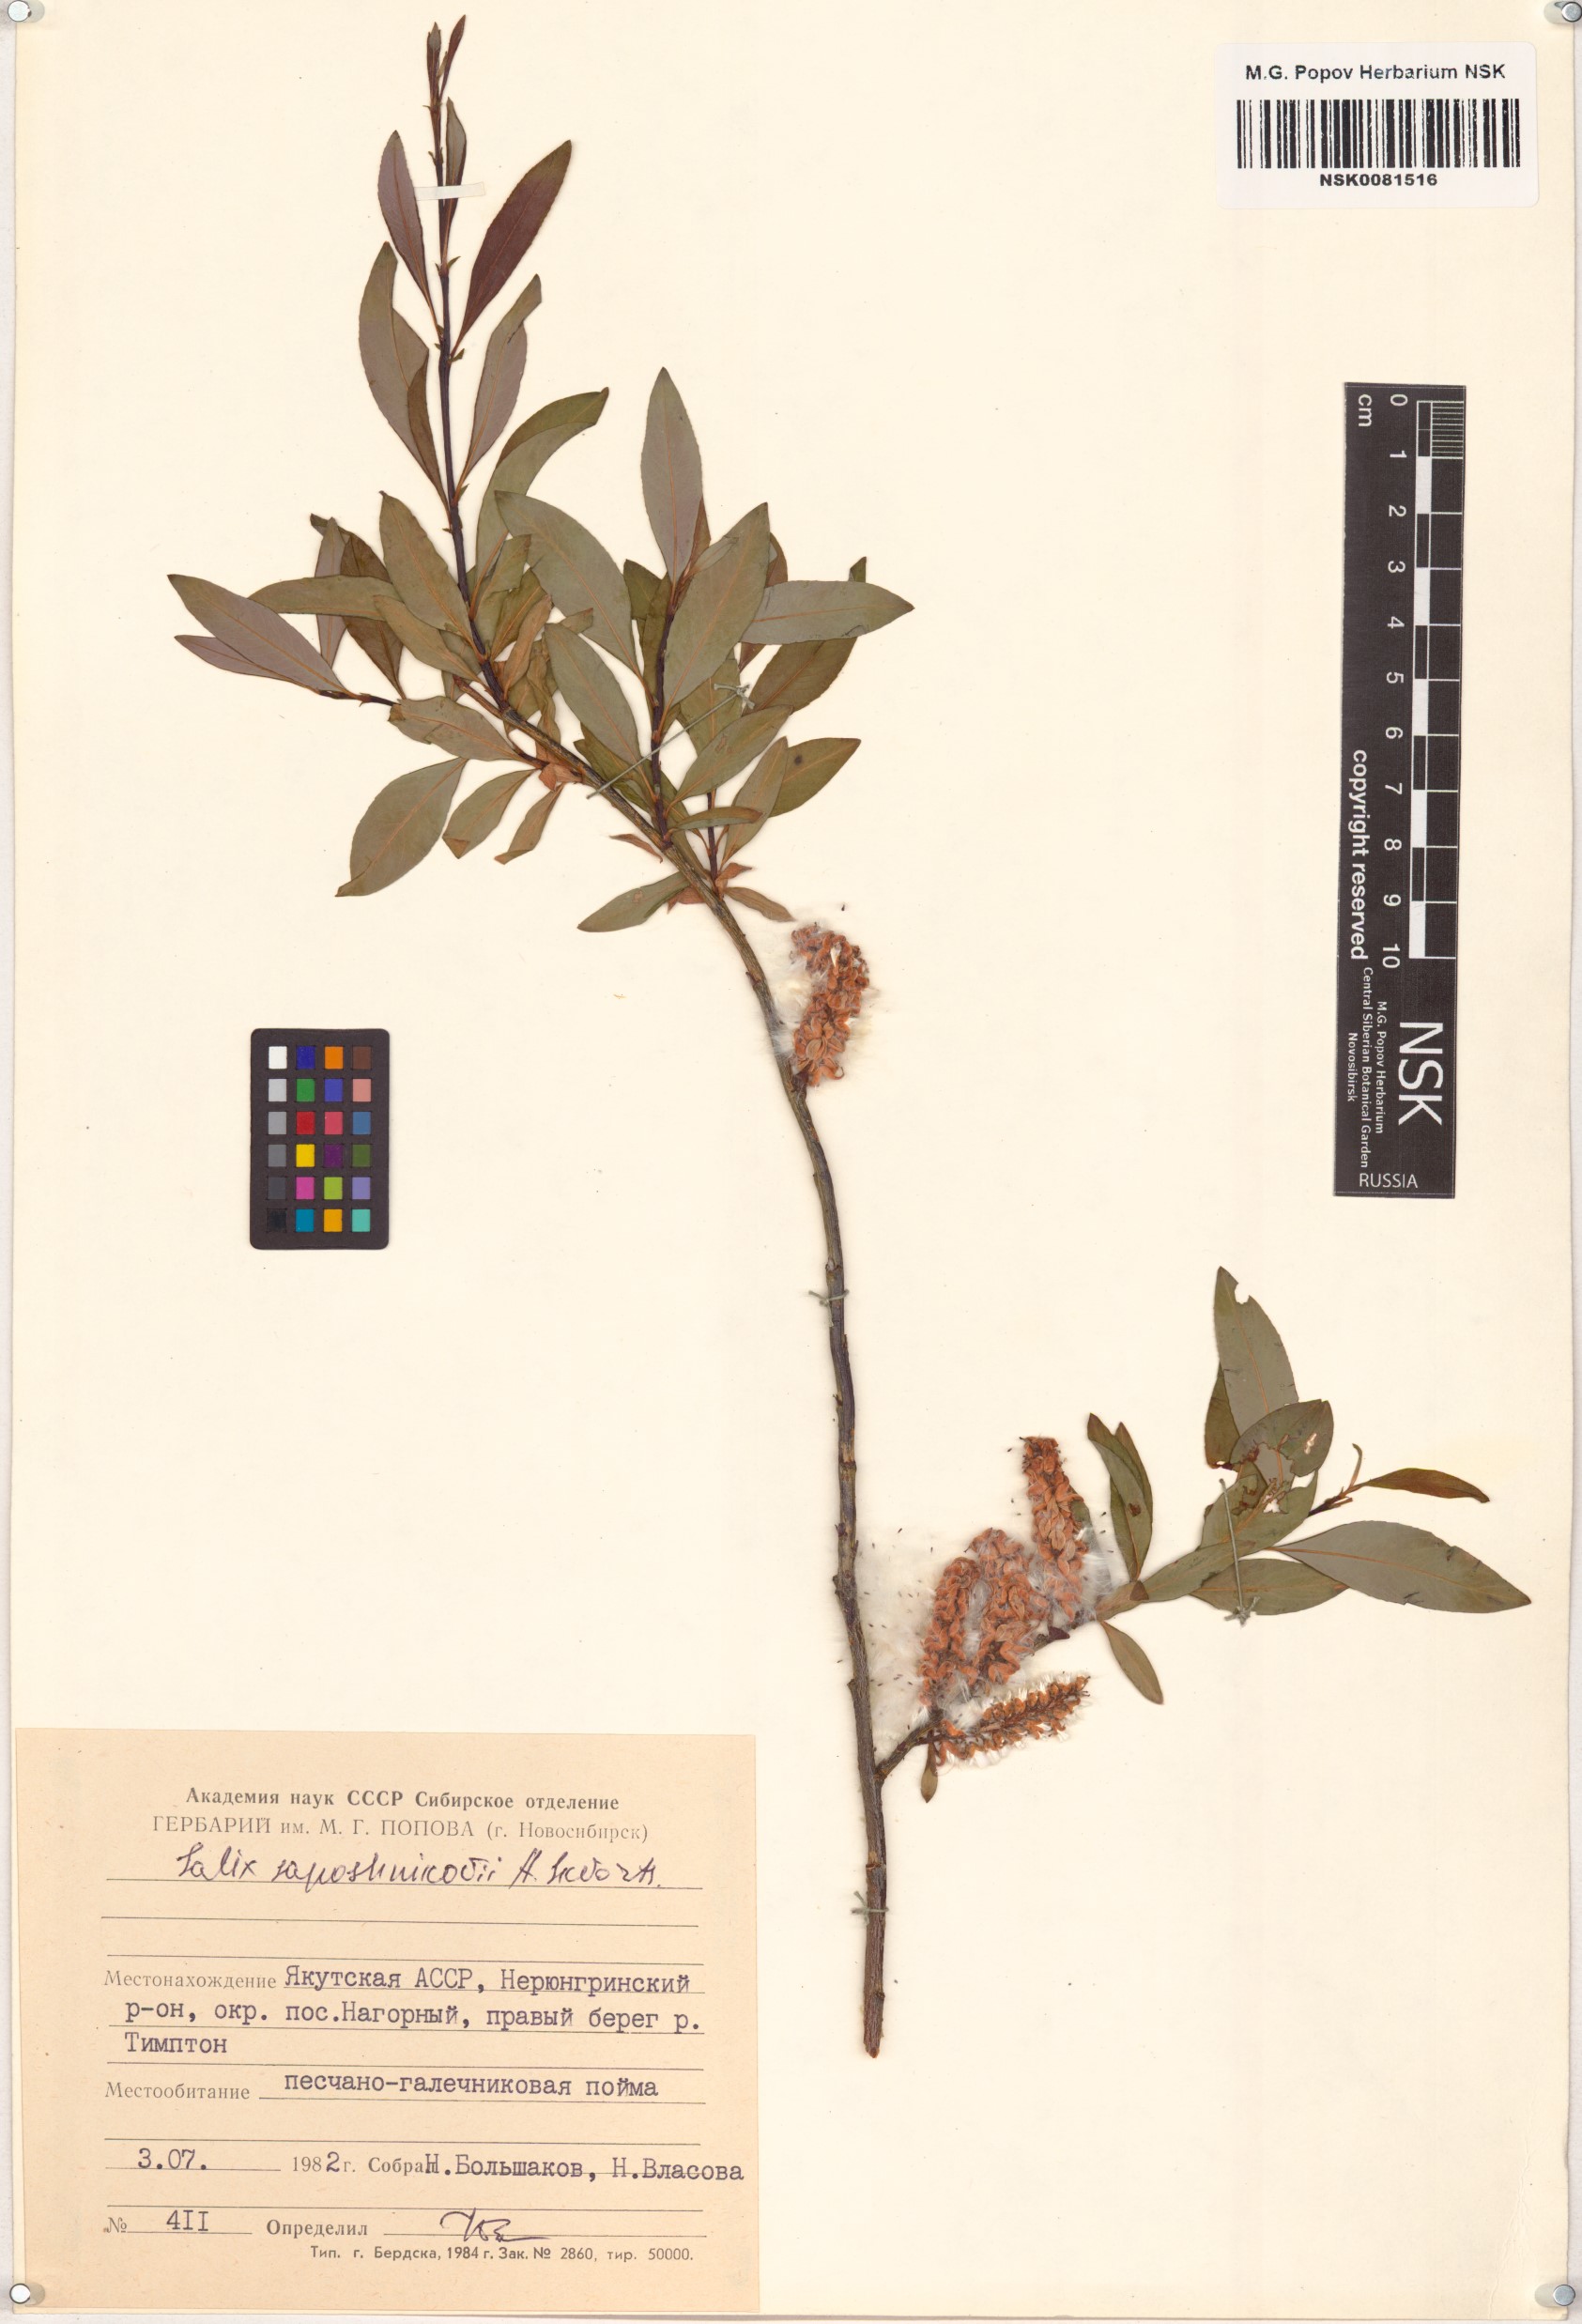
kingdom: Plantae
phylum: Tracheophyta
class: Magnoliopsida
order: Malpighiales
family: Salicaceae
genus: Salix
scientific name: Salix saposhnikovii
